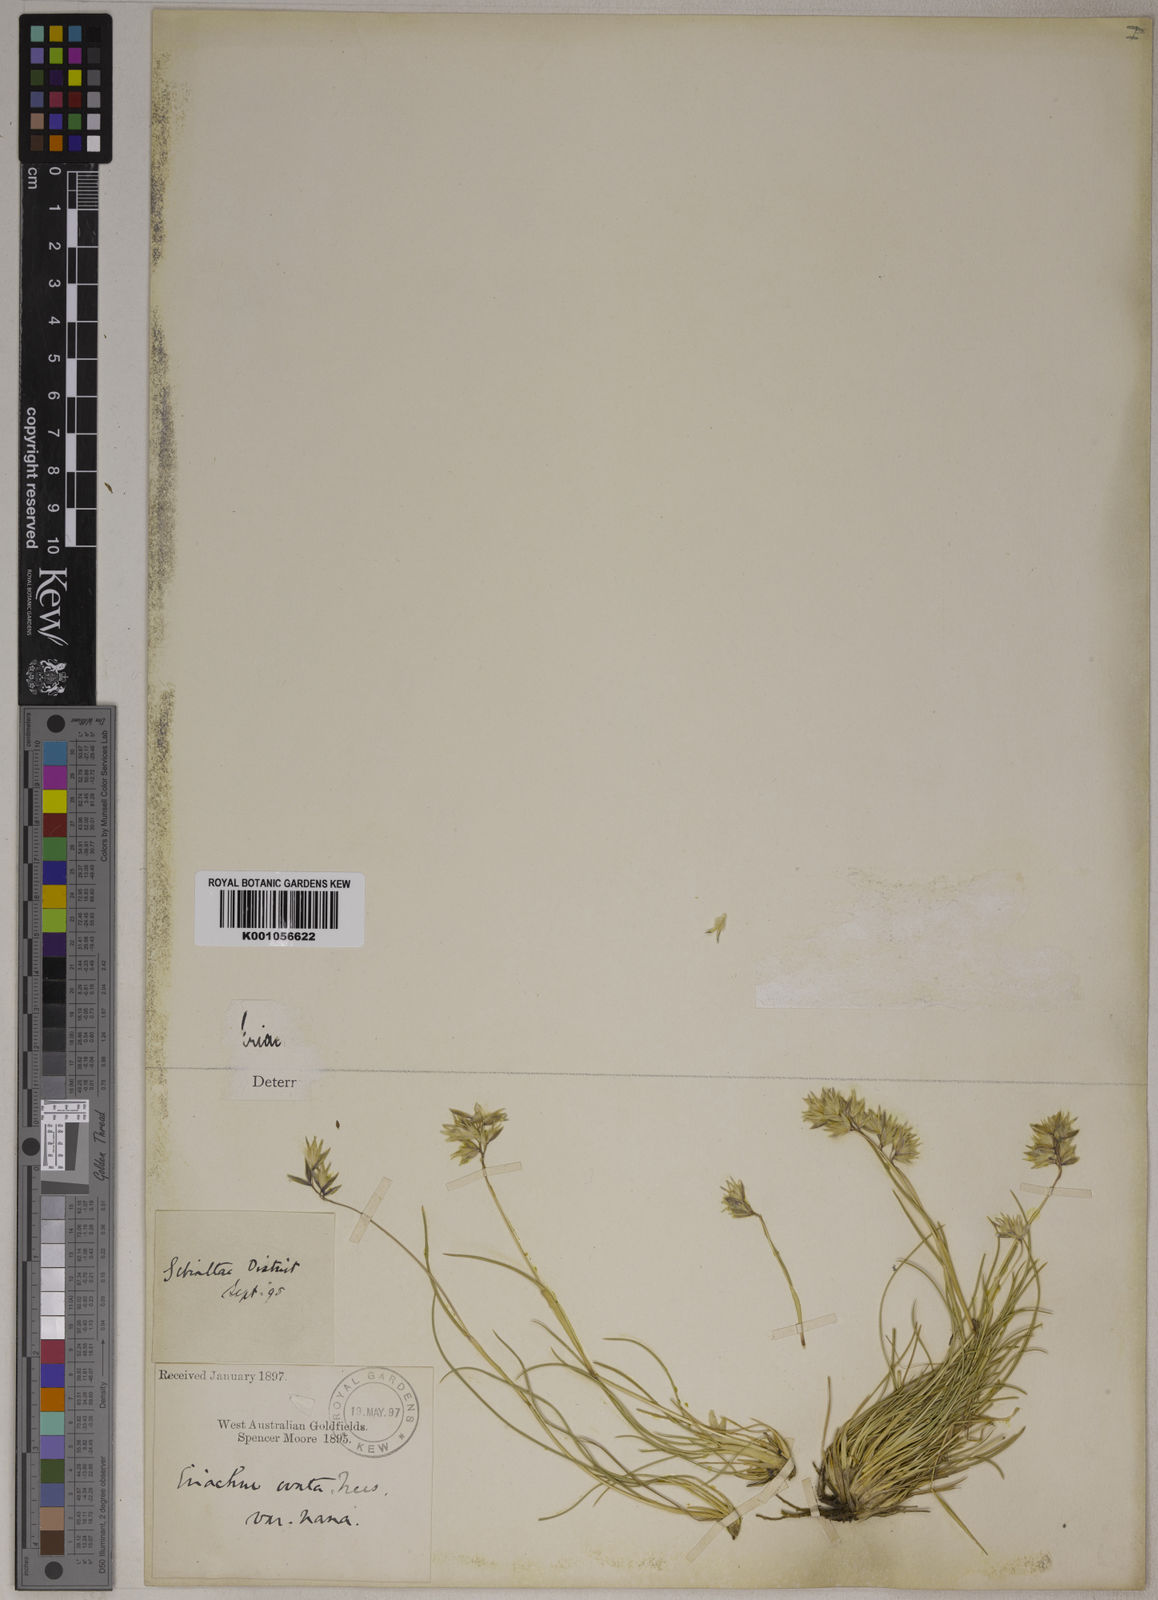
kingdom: Plantae
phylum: Tracheophyta
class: Liliopsida
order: Poales
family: Poaceae
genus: Eriachne
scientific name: Eriachne ovata
